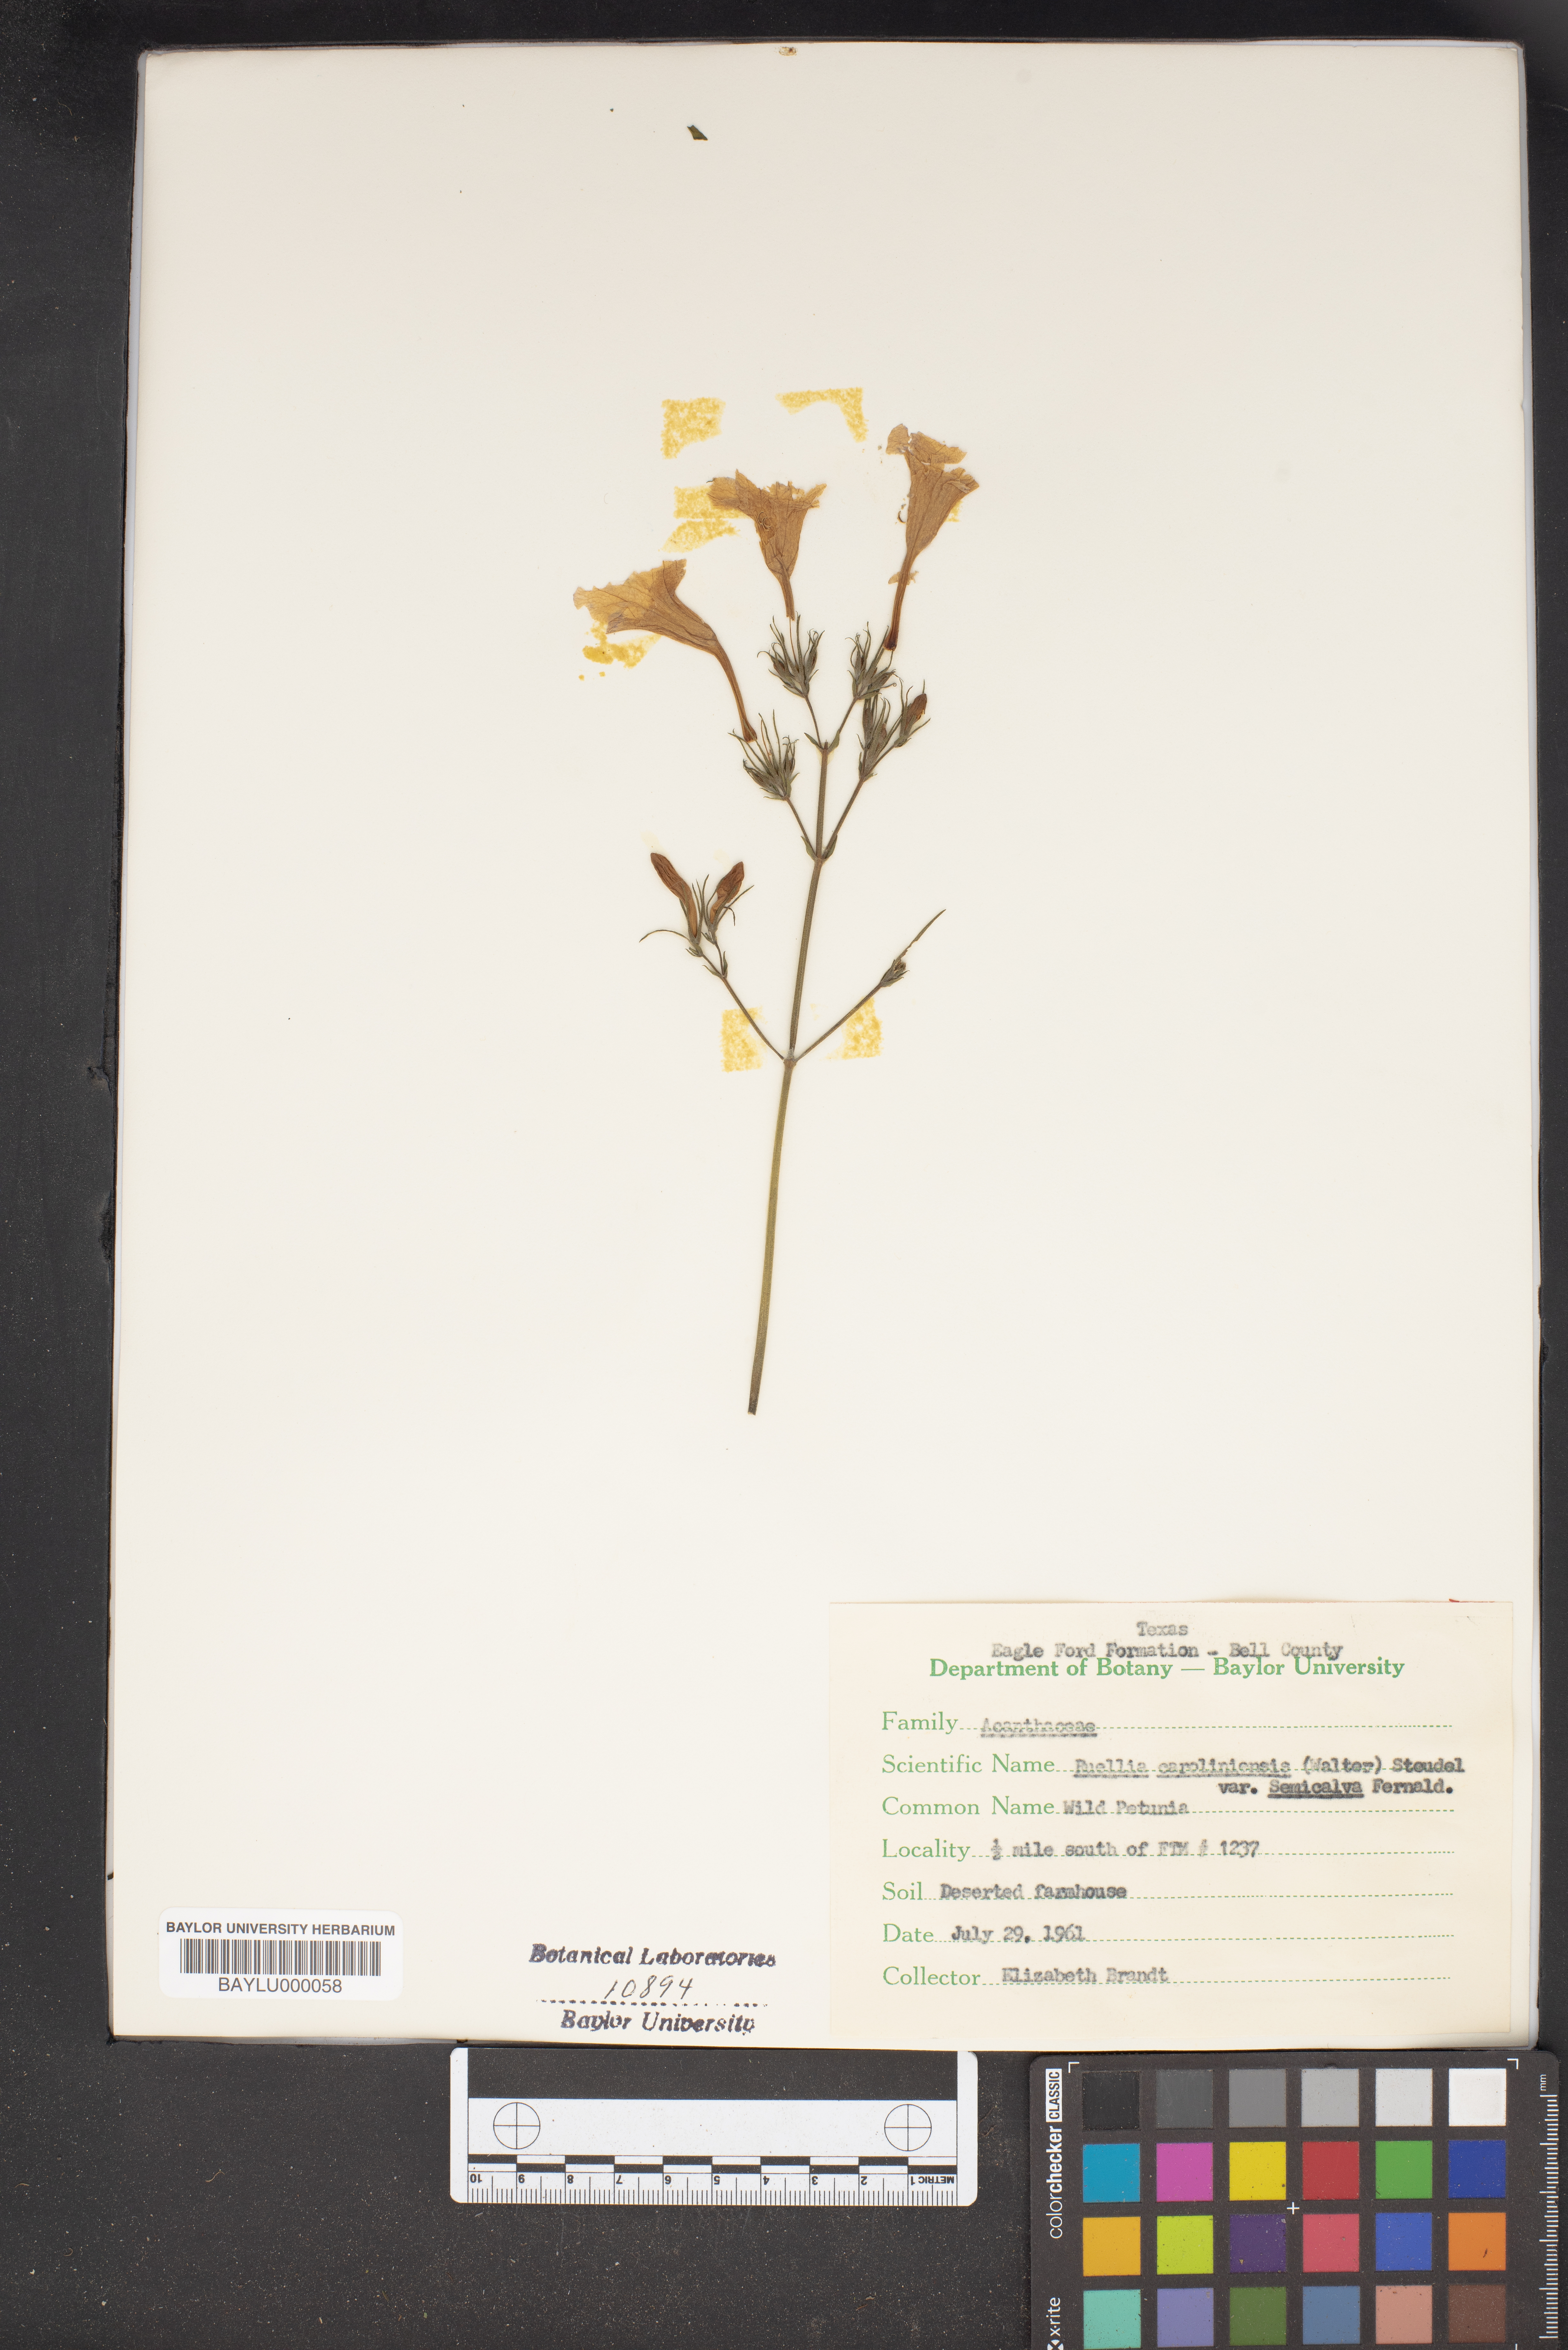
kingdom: Plantae
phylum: Tracheophyta
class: Magnoliopsida
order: Lamiales
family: Acanthaceae
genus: Ruellia
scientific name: Ruellia caroliniensis
